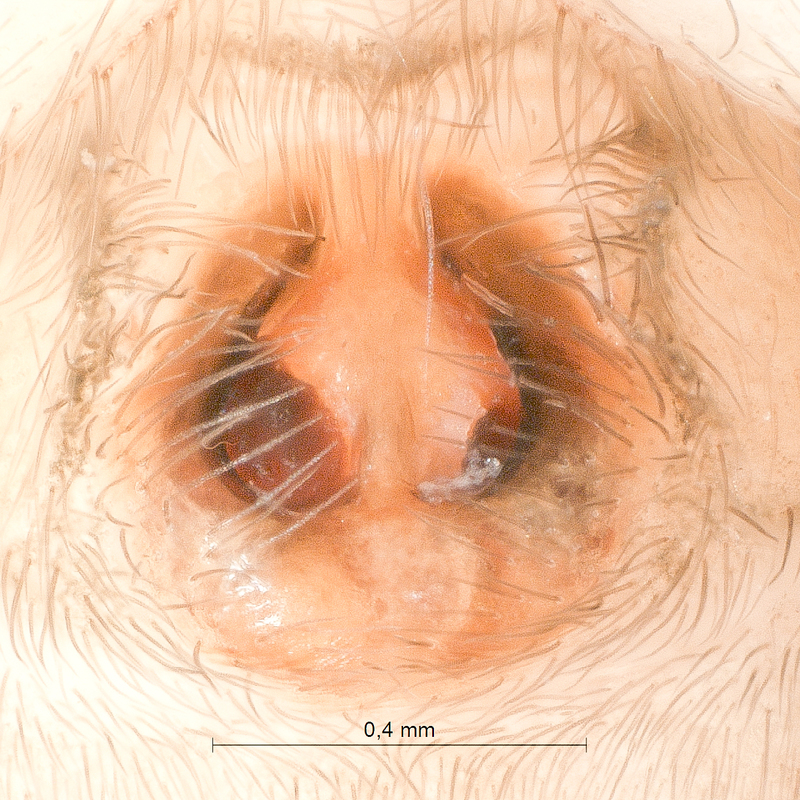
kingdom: Animalia
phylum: Arthropoda
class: Arachnida
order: Araneae
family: Gnaphosidae
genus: Haplodrassus
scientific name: Haplodrassus dalmatensis
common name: Heath grasper
